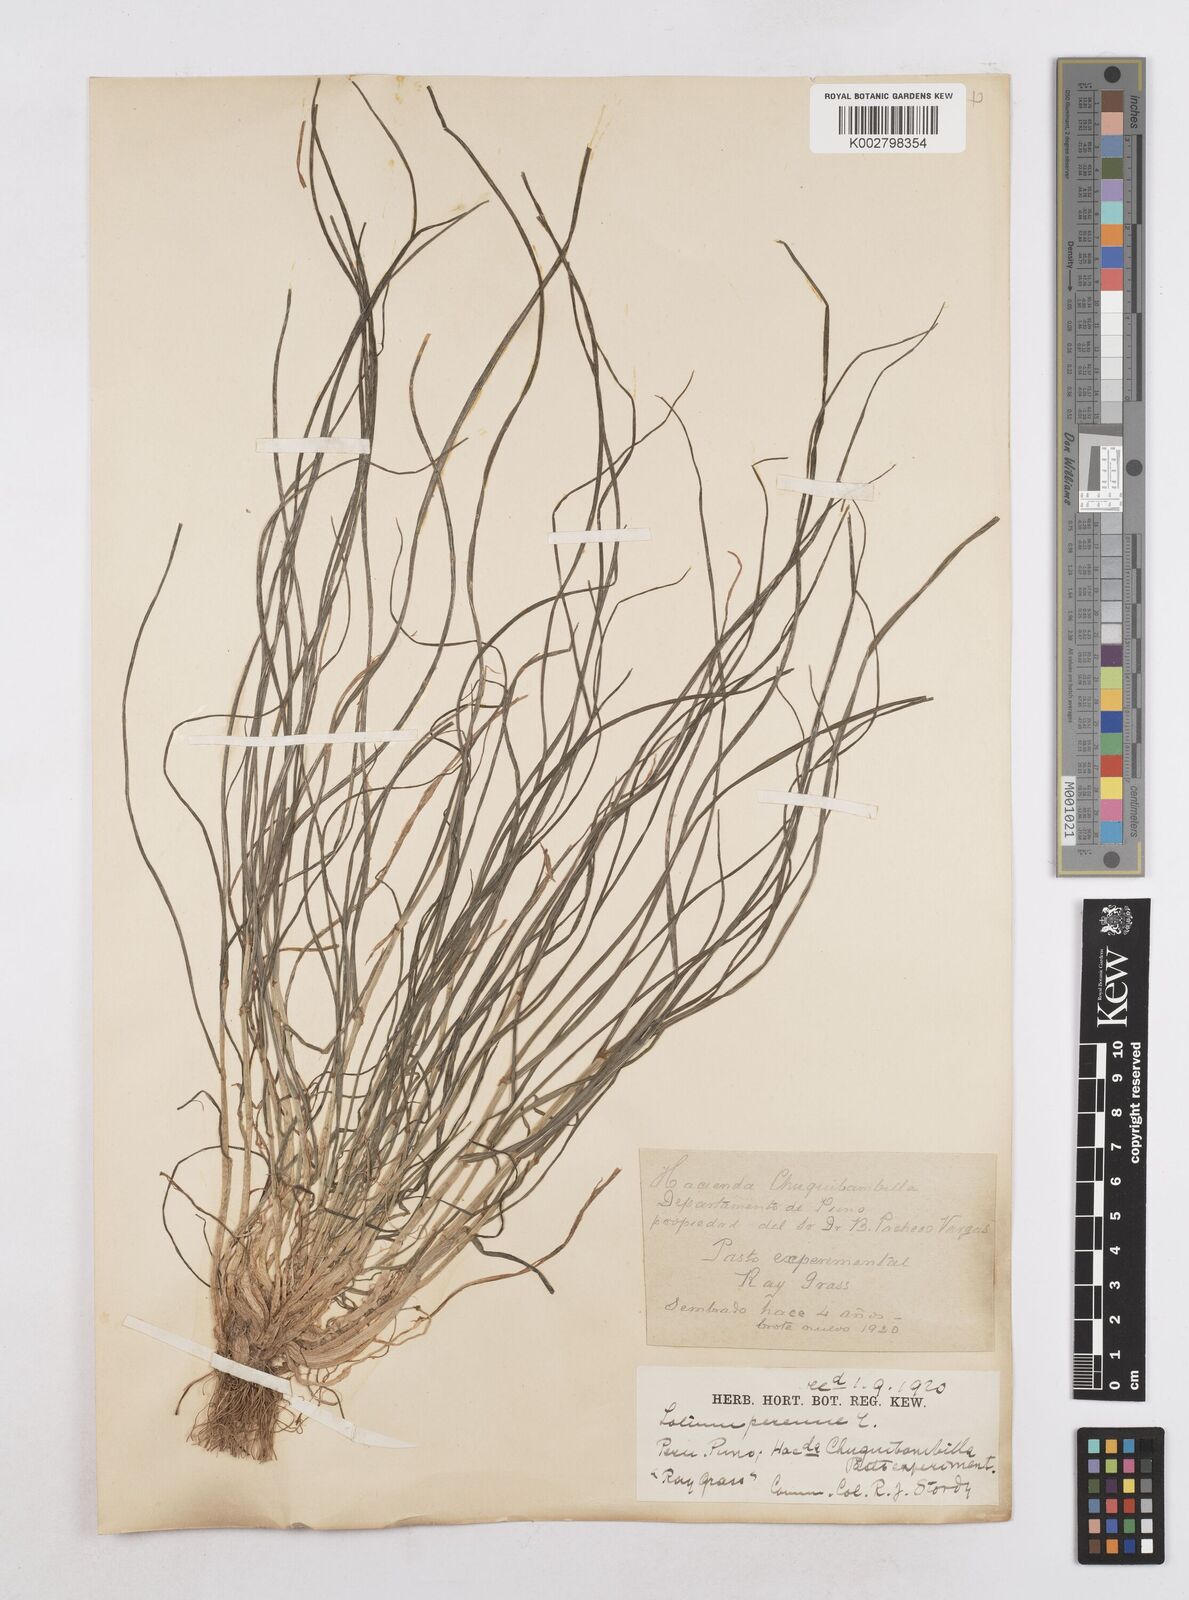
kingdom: Plantae
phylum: Tracheophyta
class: Liliopsida
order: Poales
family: Poaceae
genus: Lolium
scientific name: Lolium perenne
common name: Perennial ryegrass
